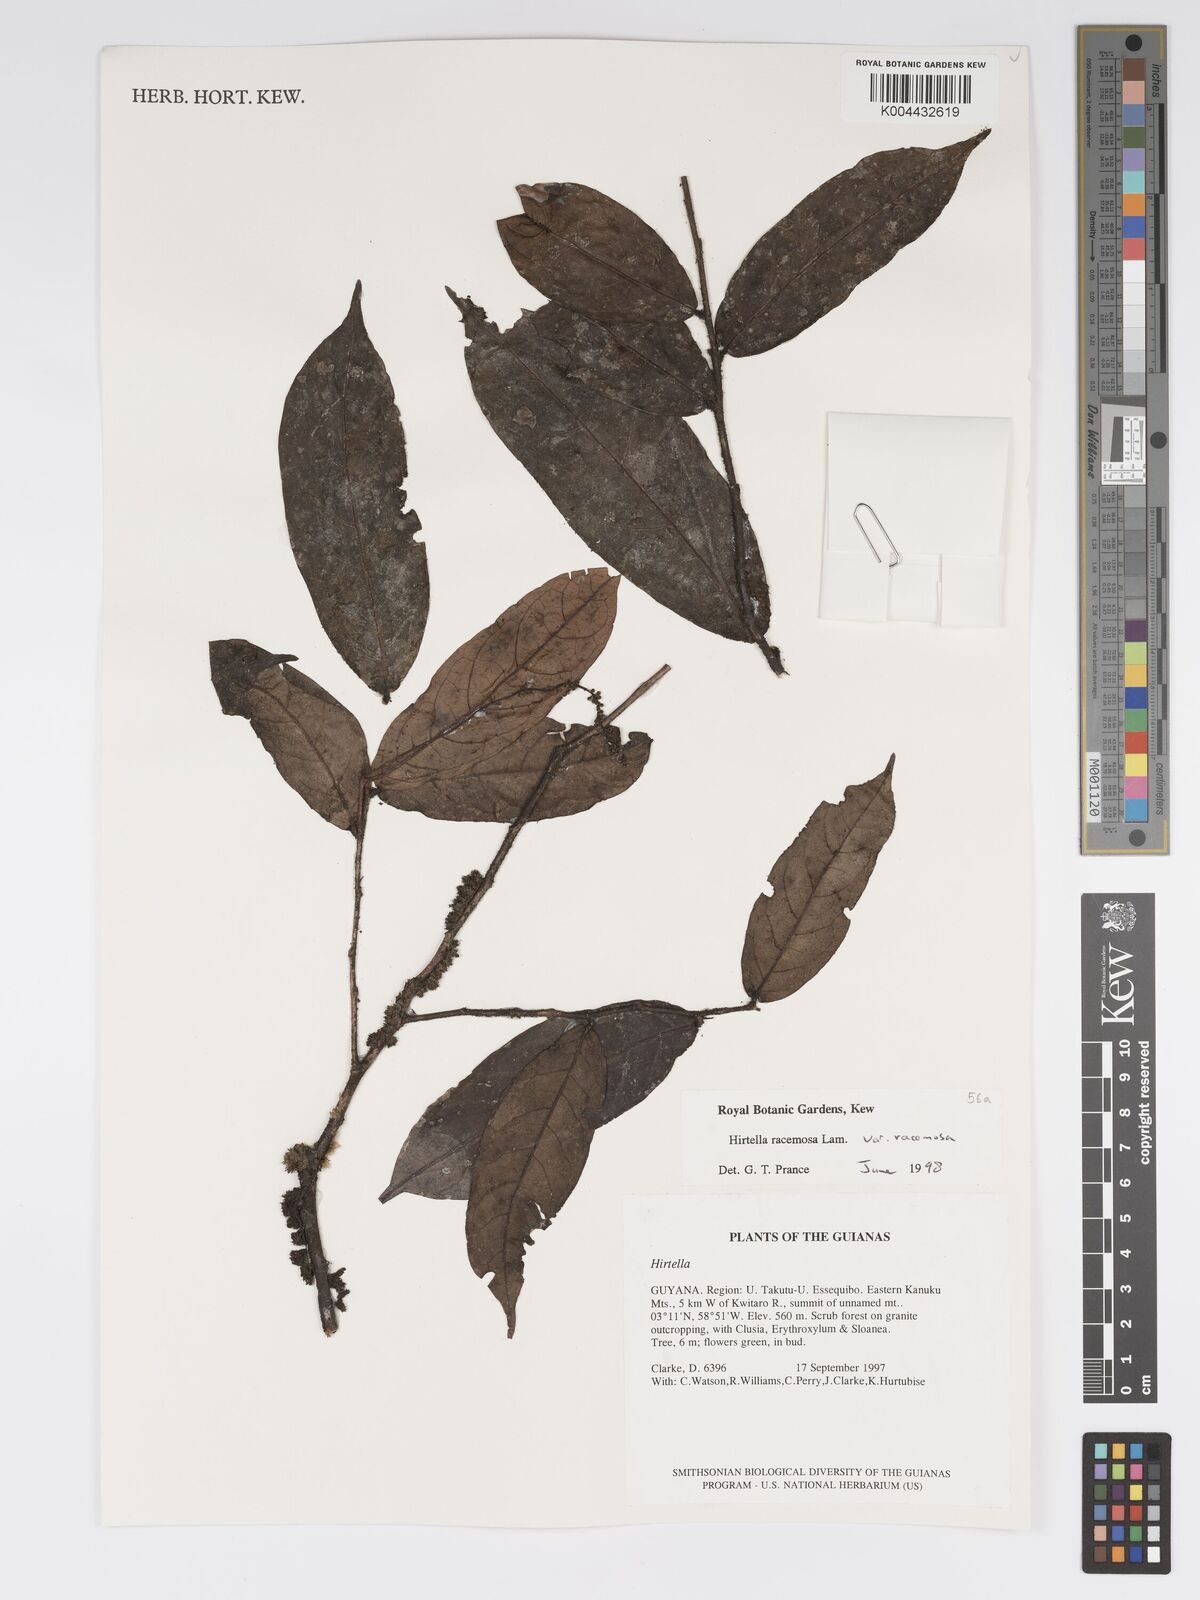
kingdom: Plantae
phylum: Tracheophyta
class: Magnoliopsida
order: Malpighiales
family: Chrysobalanaceae
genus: Hirtella
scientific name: Hirtella racemosa
